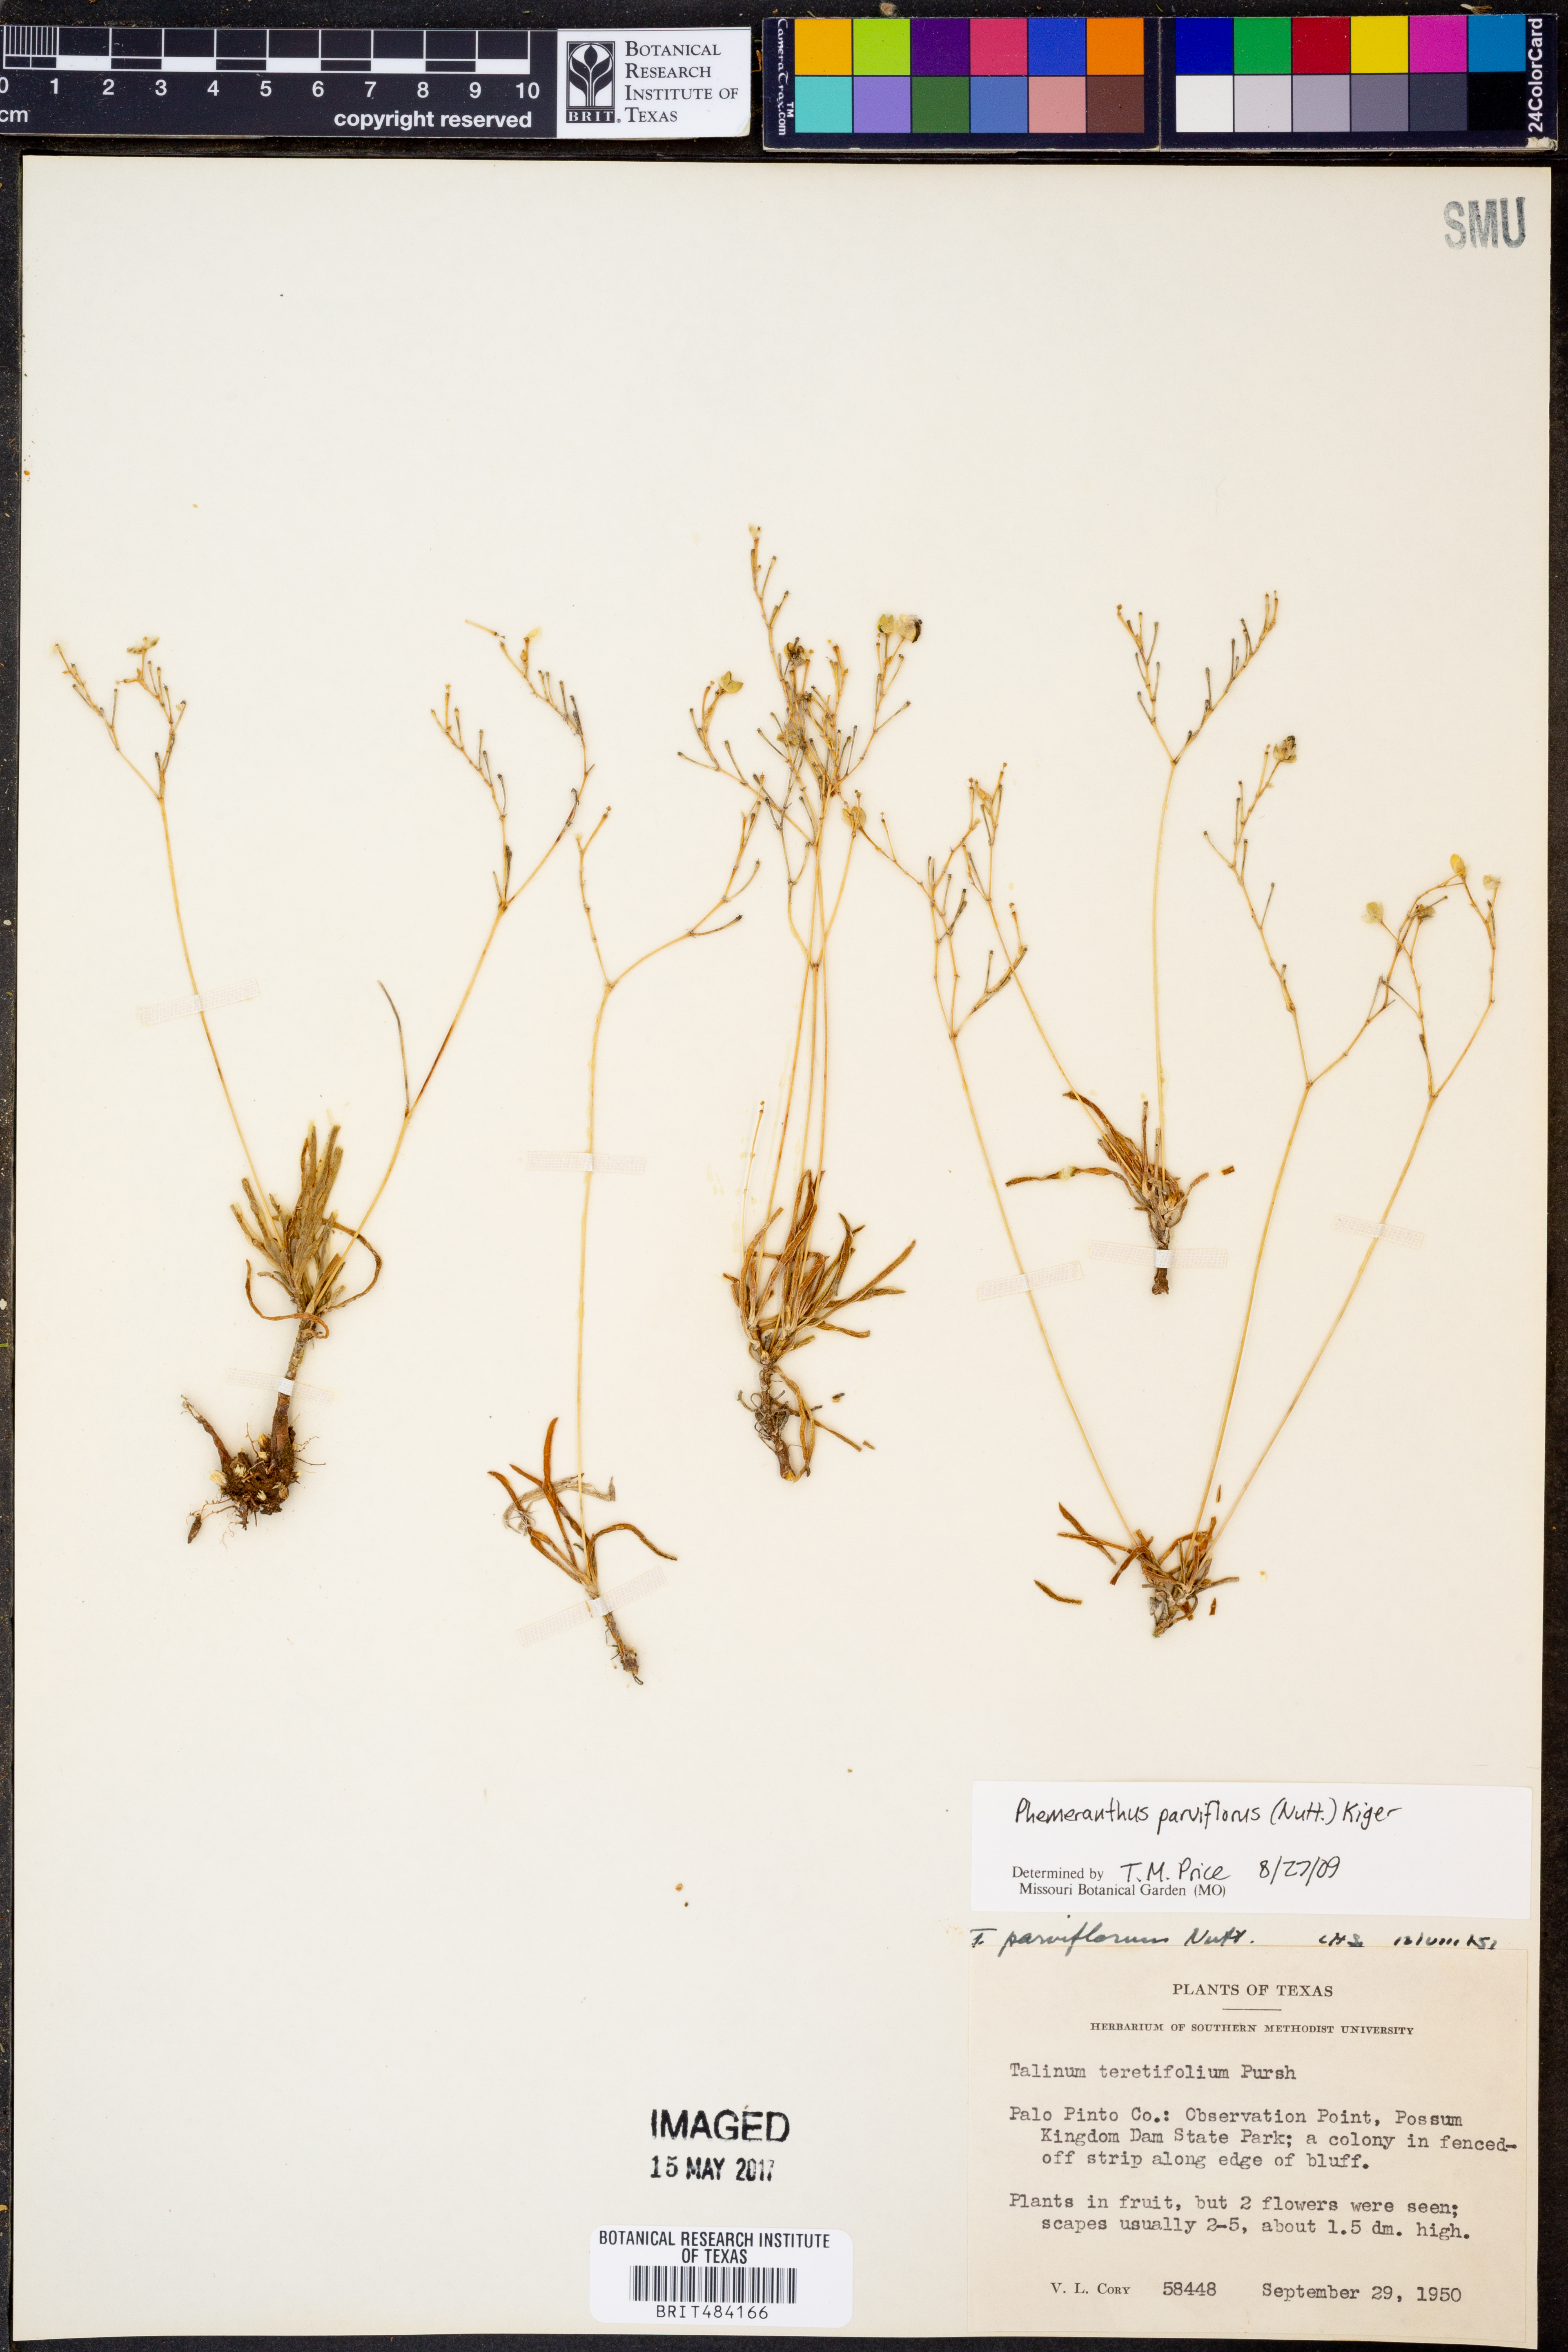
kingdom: Plantae
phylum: Tracheophyta
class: Magnoliopsida
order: Caryophyllales
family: Montiaceae
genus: Phemeranthus
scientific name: Phemeranthus parviflorus
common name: Sunbright
